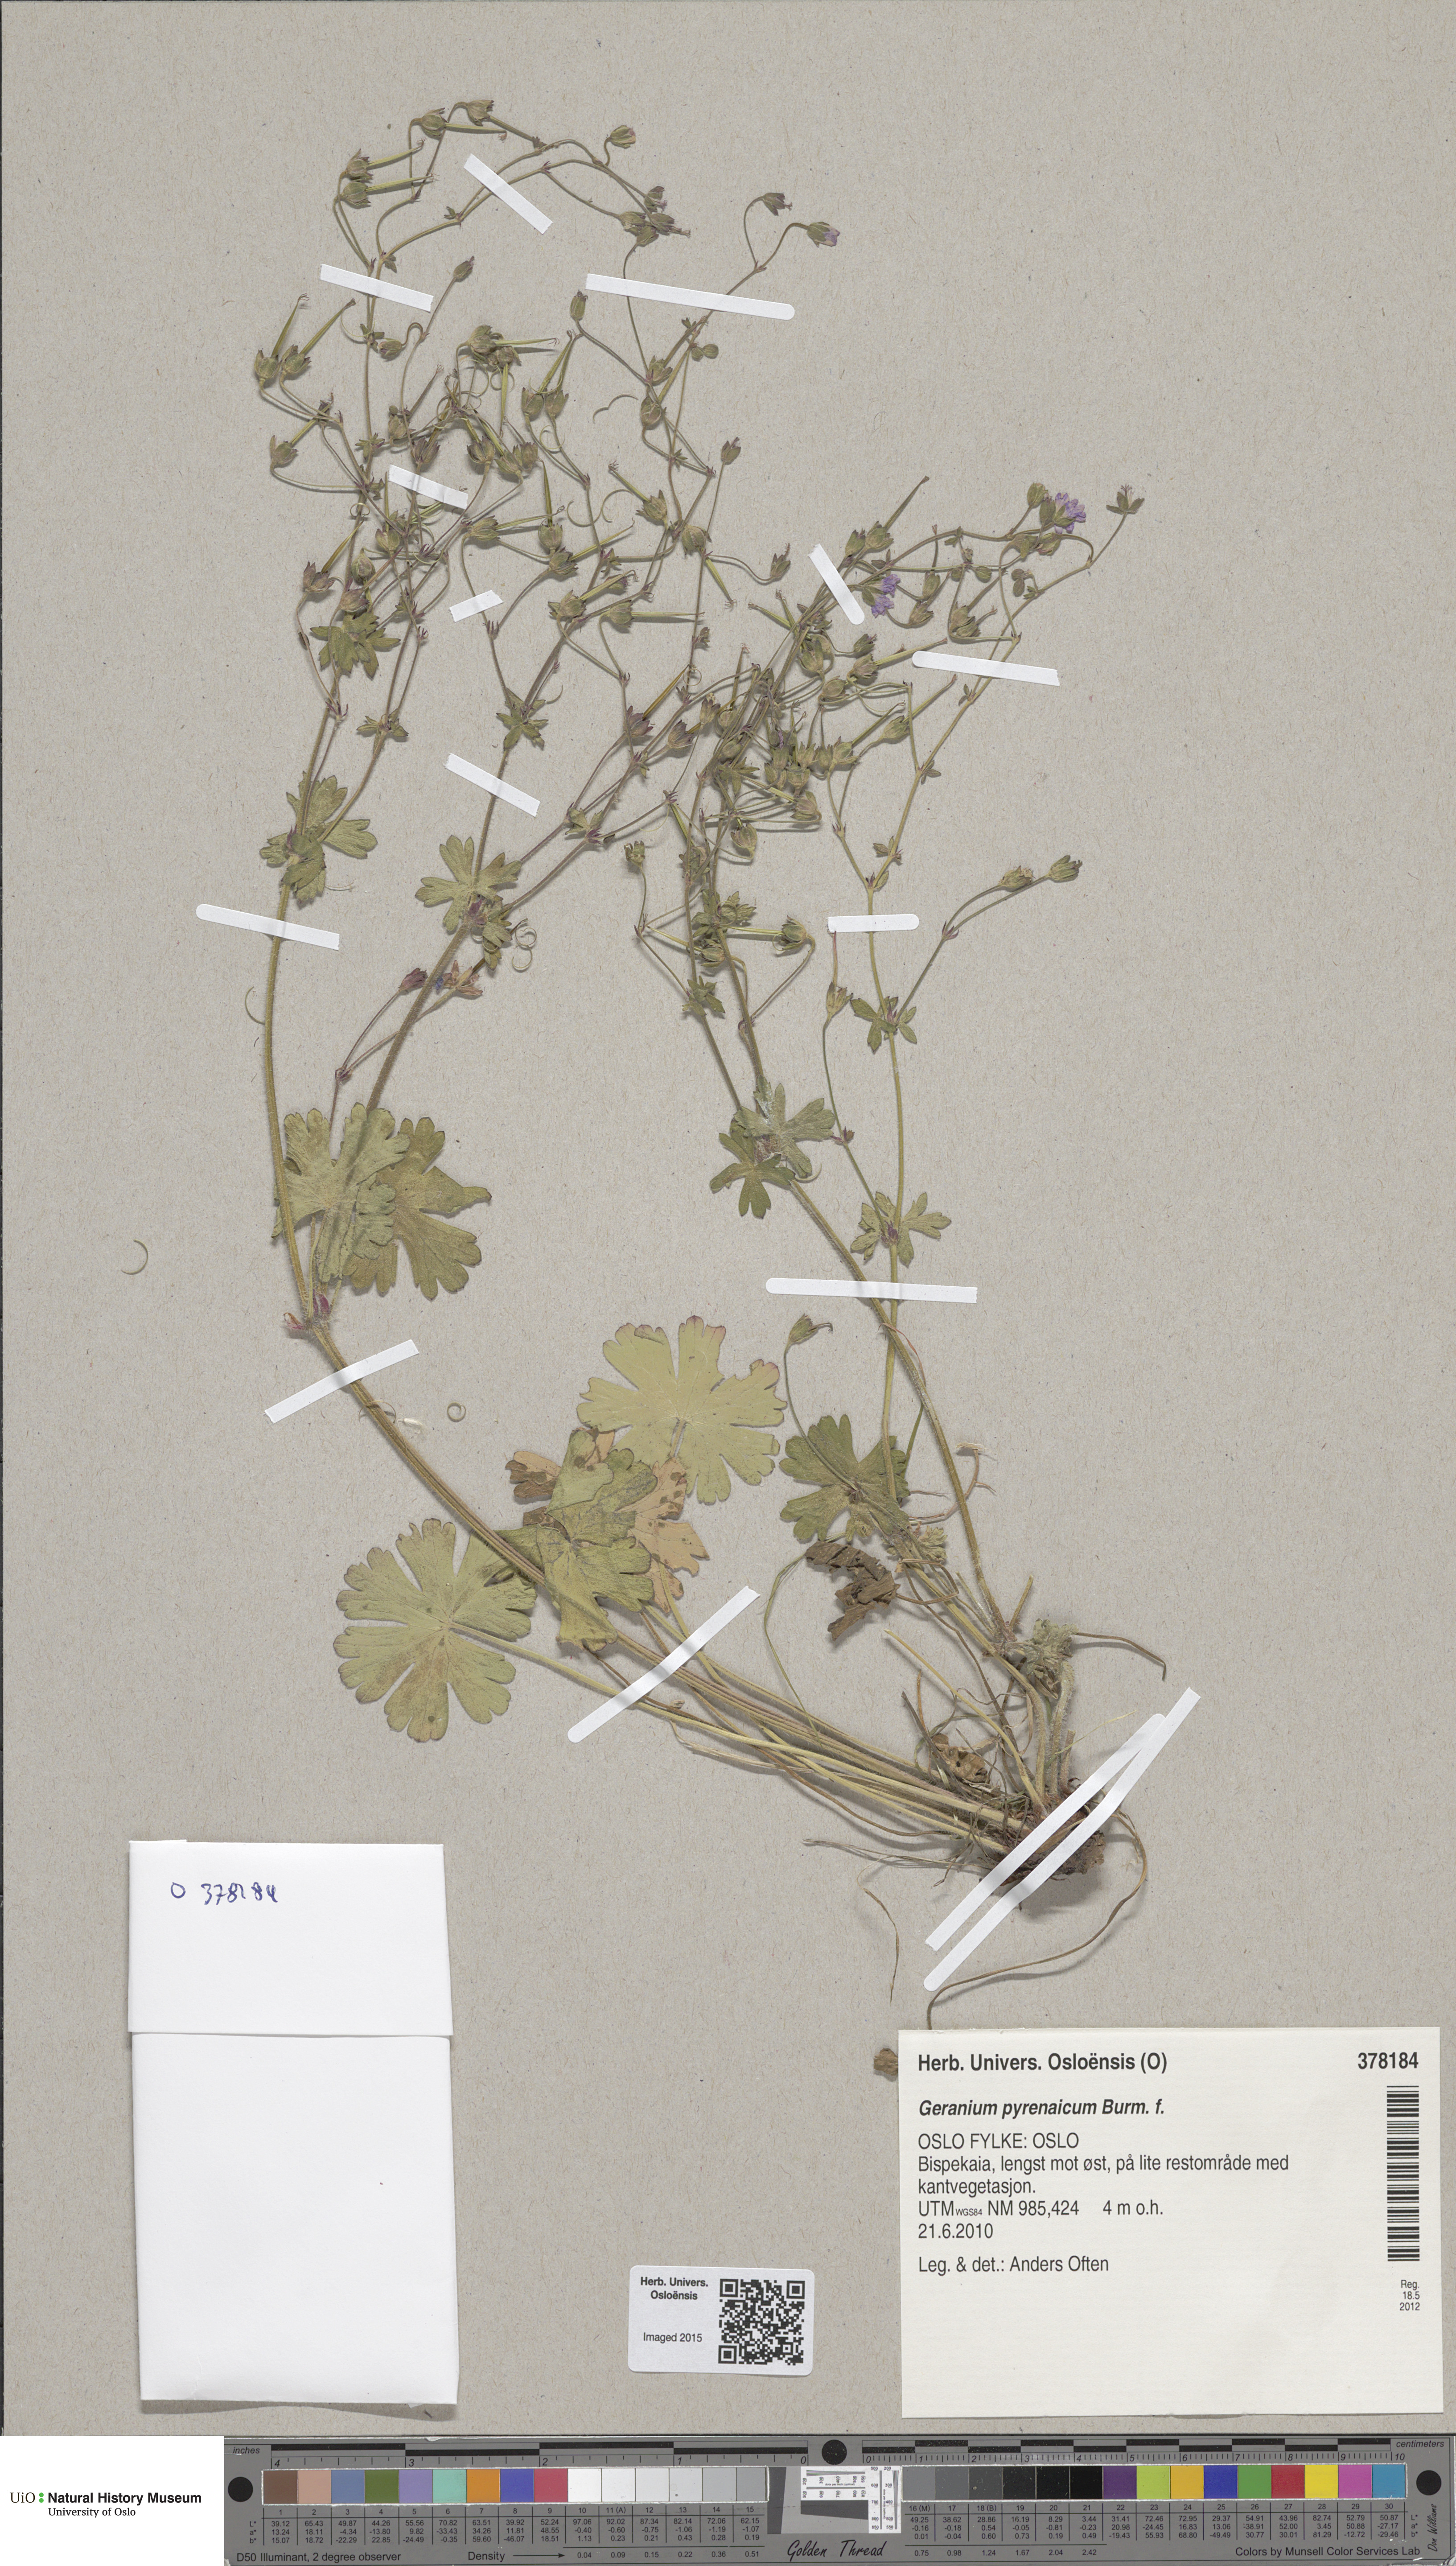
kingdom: Plantae
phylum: Tracheophyta
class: Magnoliopsida
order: Geraniales
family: Geraniaceae
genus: Geranium
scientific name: Geranium pyrenaicum
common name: Hedgerow crane's-bill
